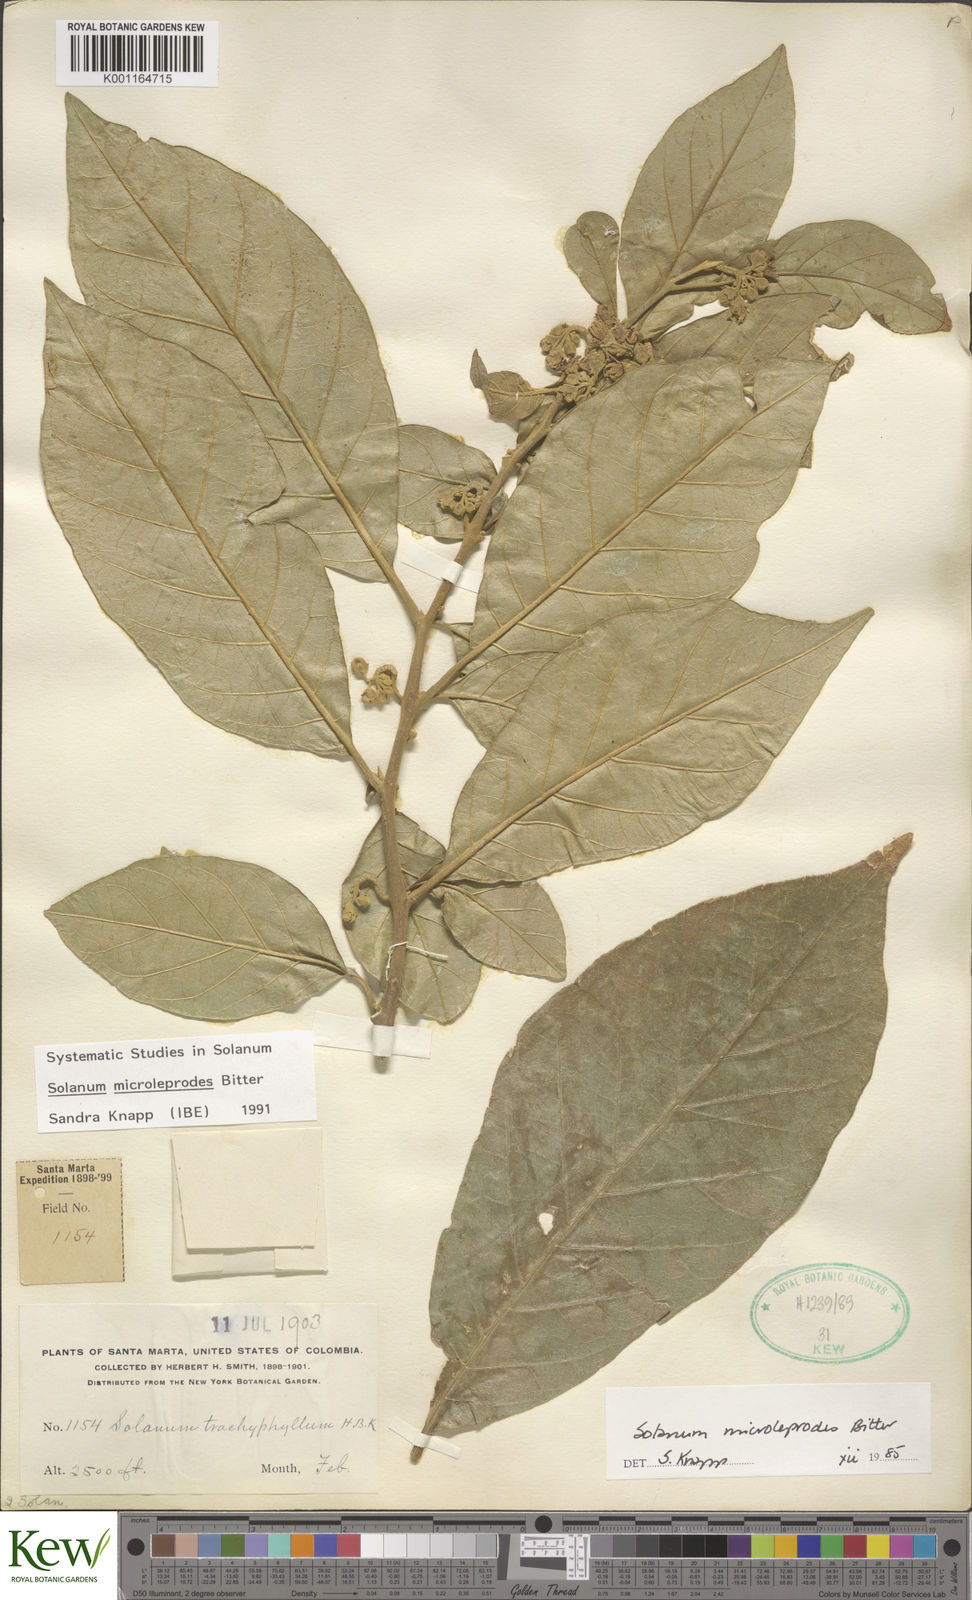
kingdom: Plantae
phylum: Tracheophyta
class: Magnoliopsida
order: Solanales
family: Solanaceae
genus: Solanum
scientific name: Solanum microleprodes
